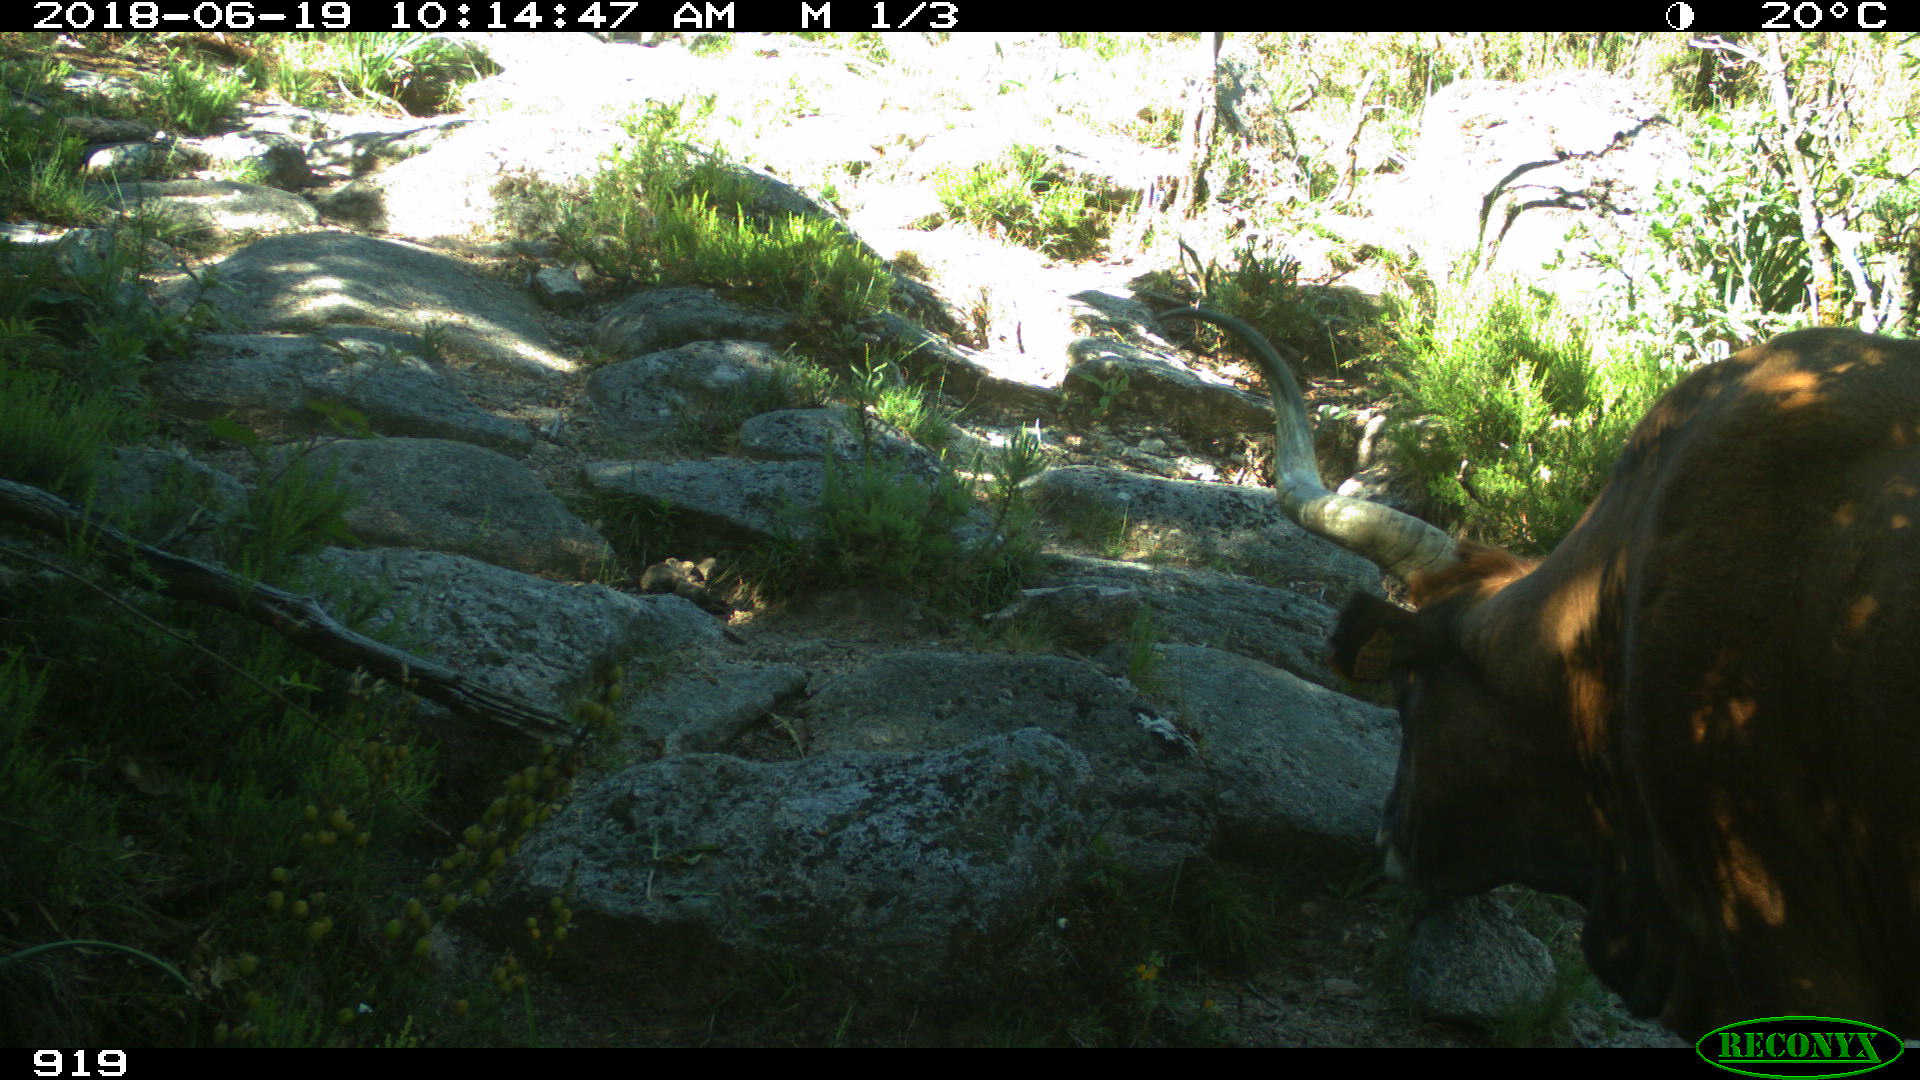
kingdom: Animalia
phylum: Chordata
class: Mammalia
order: Artiodactyla
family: Bovidae
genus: Bos
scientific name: Bos taurus
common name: Domesticated cattle
